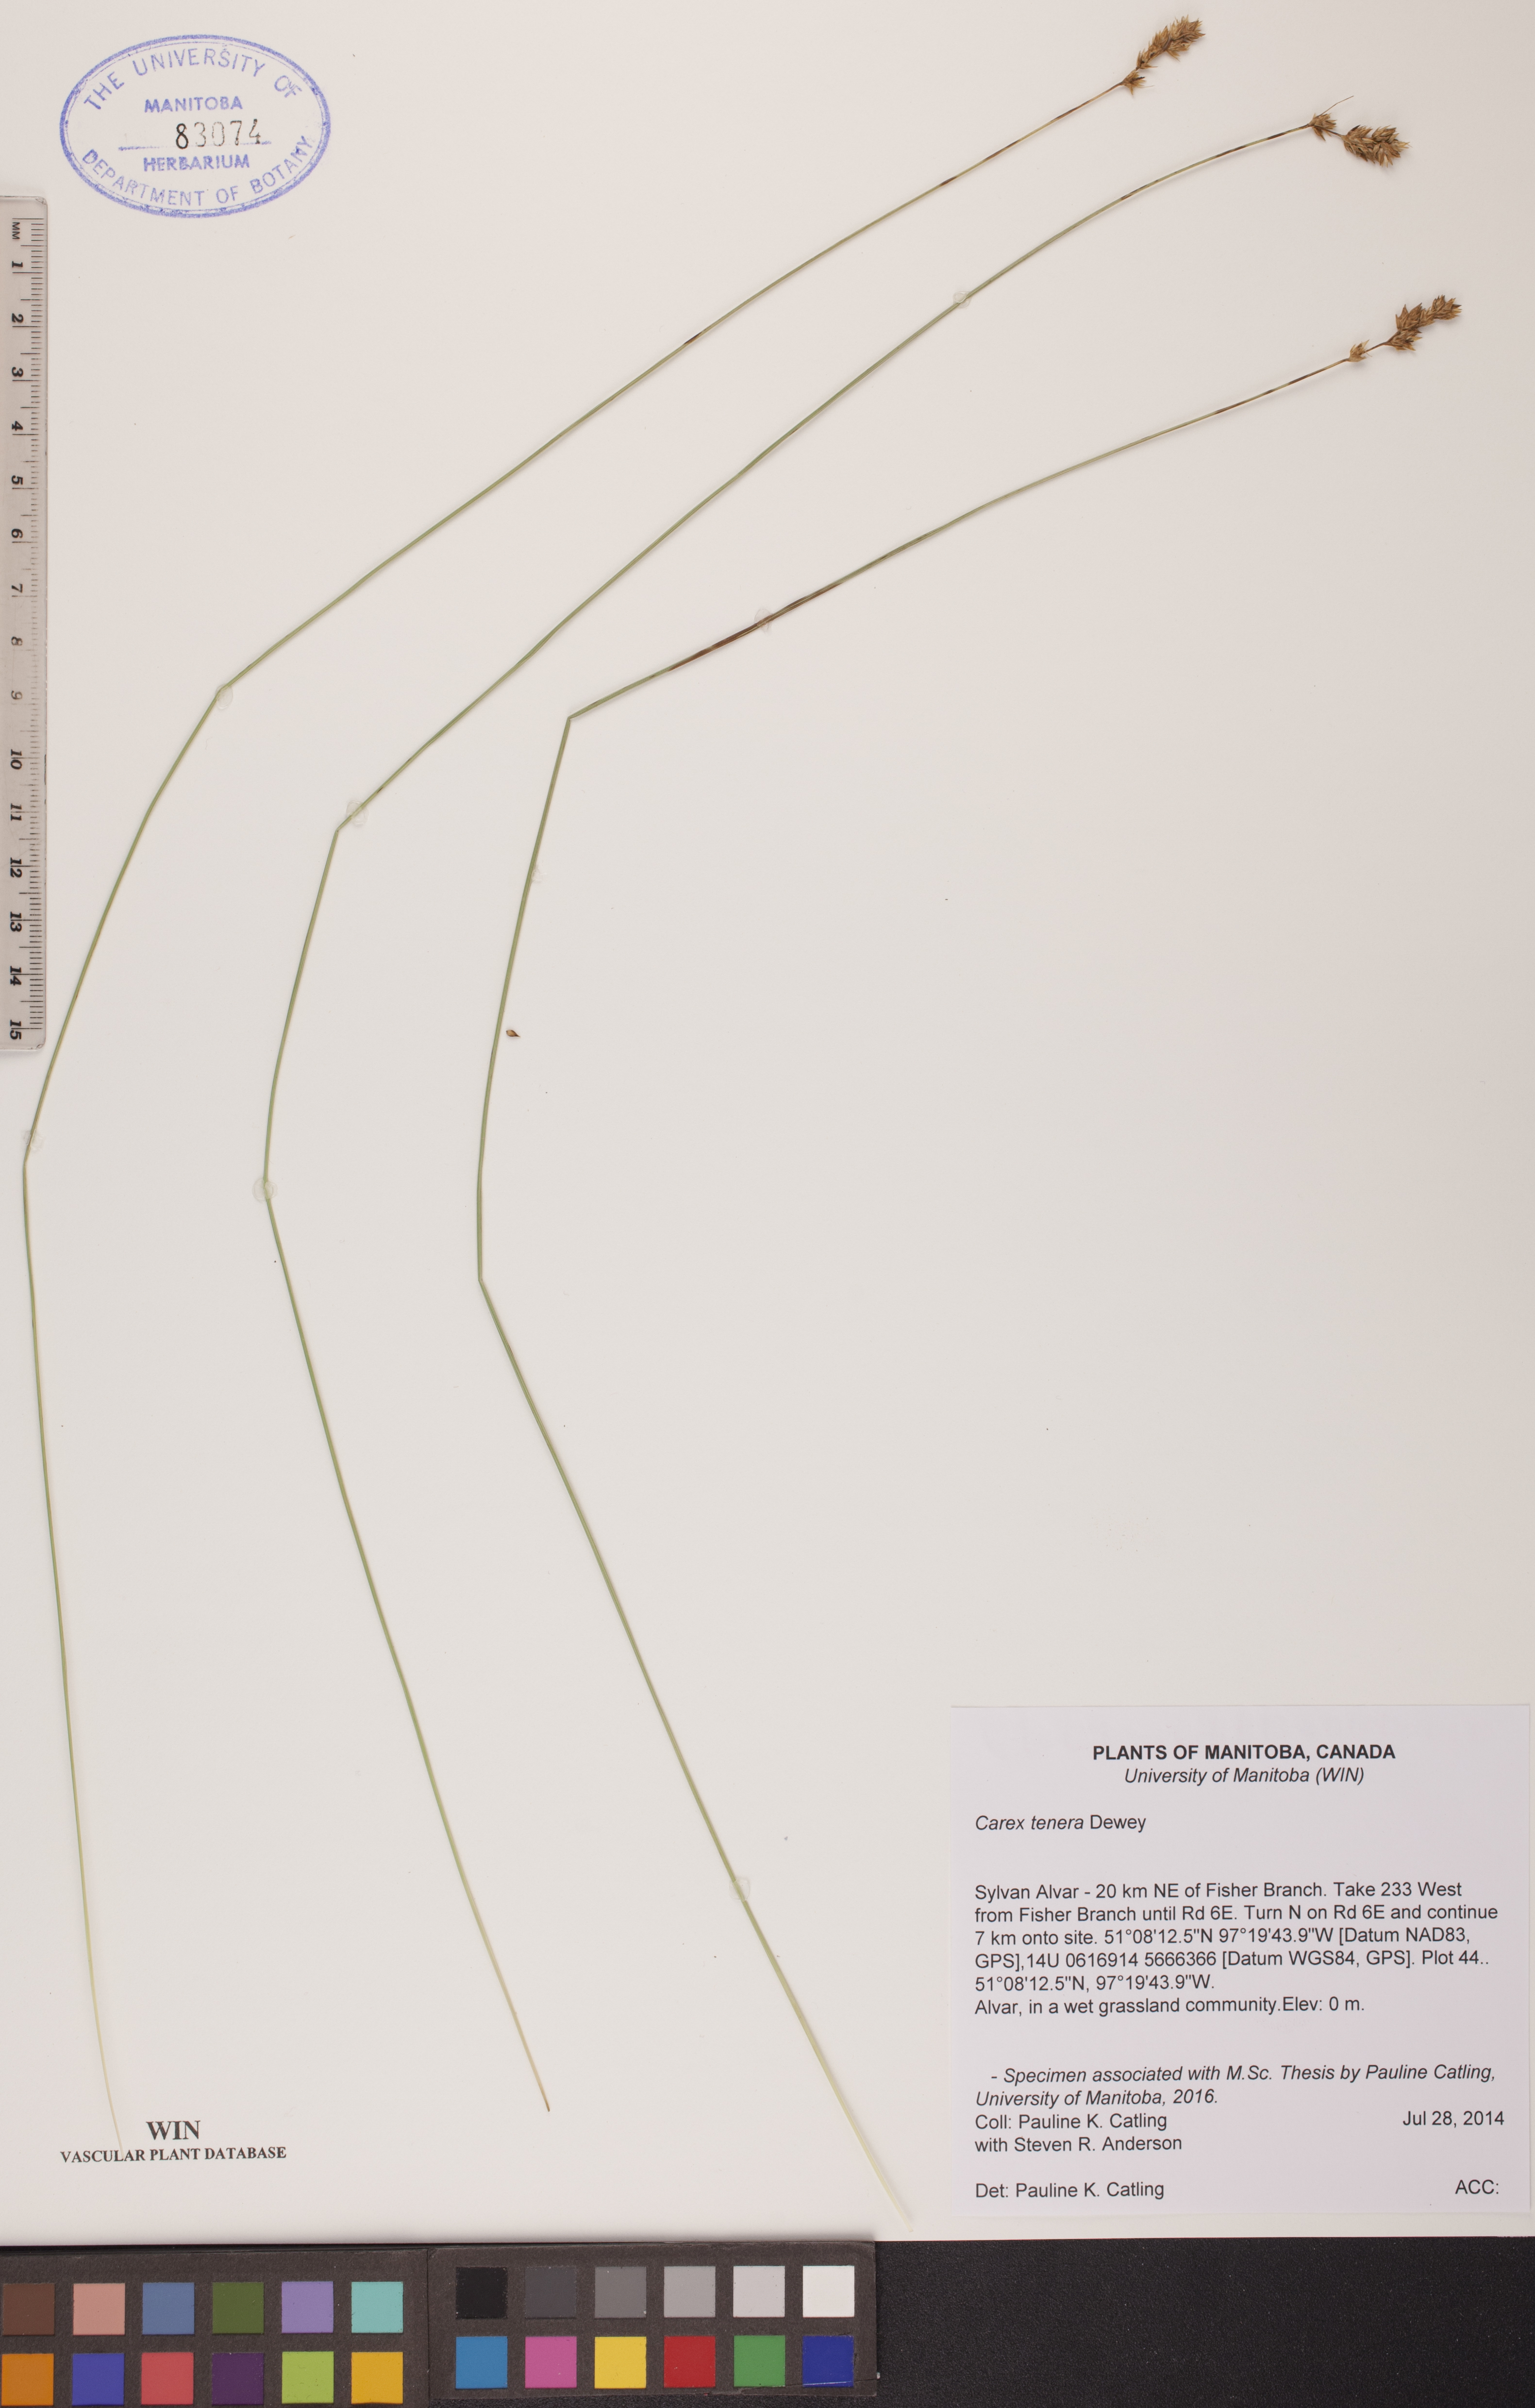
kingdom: Plantae
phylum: Tracheophyta
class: Liliopsida
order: Poales
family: Cyperaceae
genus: Carex
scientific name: Carex tenera
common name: Broad-fruited sedge
